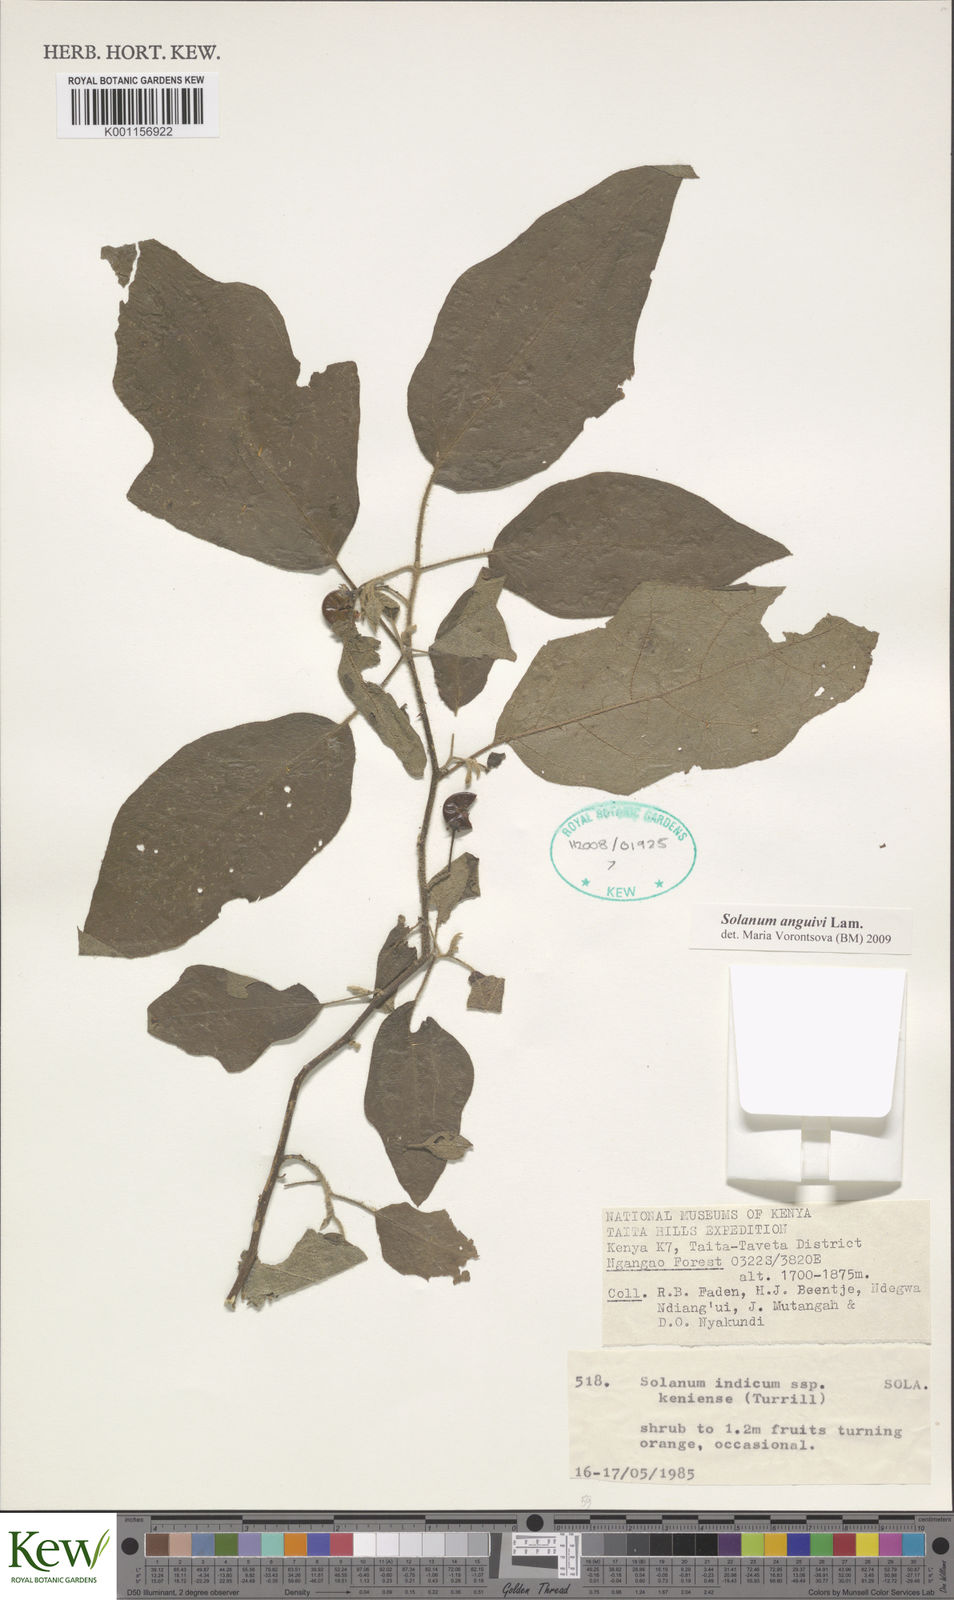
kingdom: Plantae
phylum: Tracheophyta
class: Magnoliopsida
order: Solanales
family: Solanaceae
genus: Solanum
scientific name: Solanum anguivi
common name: Forest bitterberry
